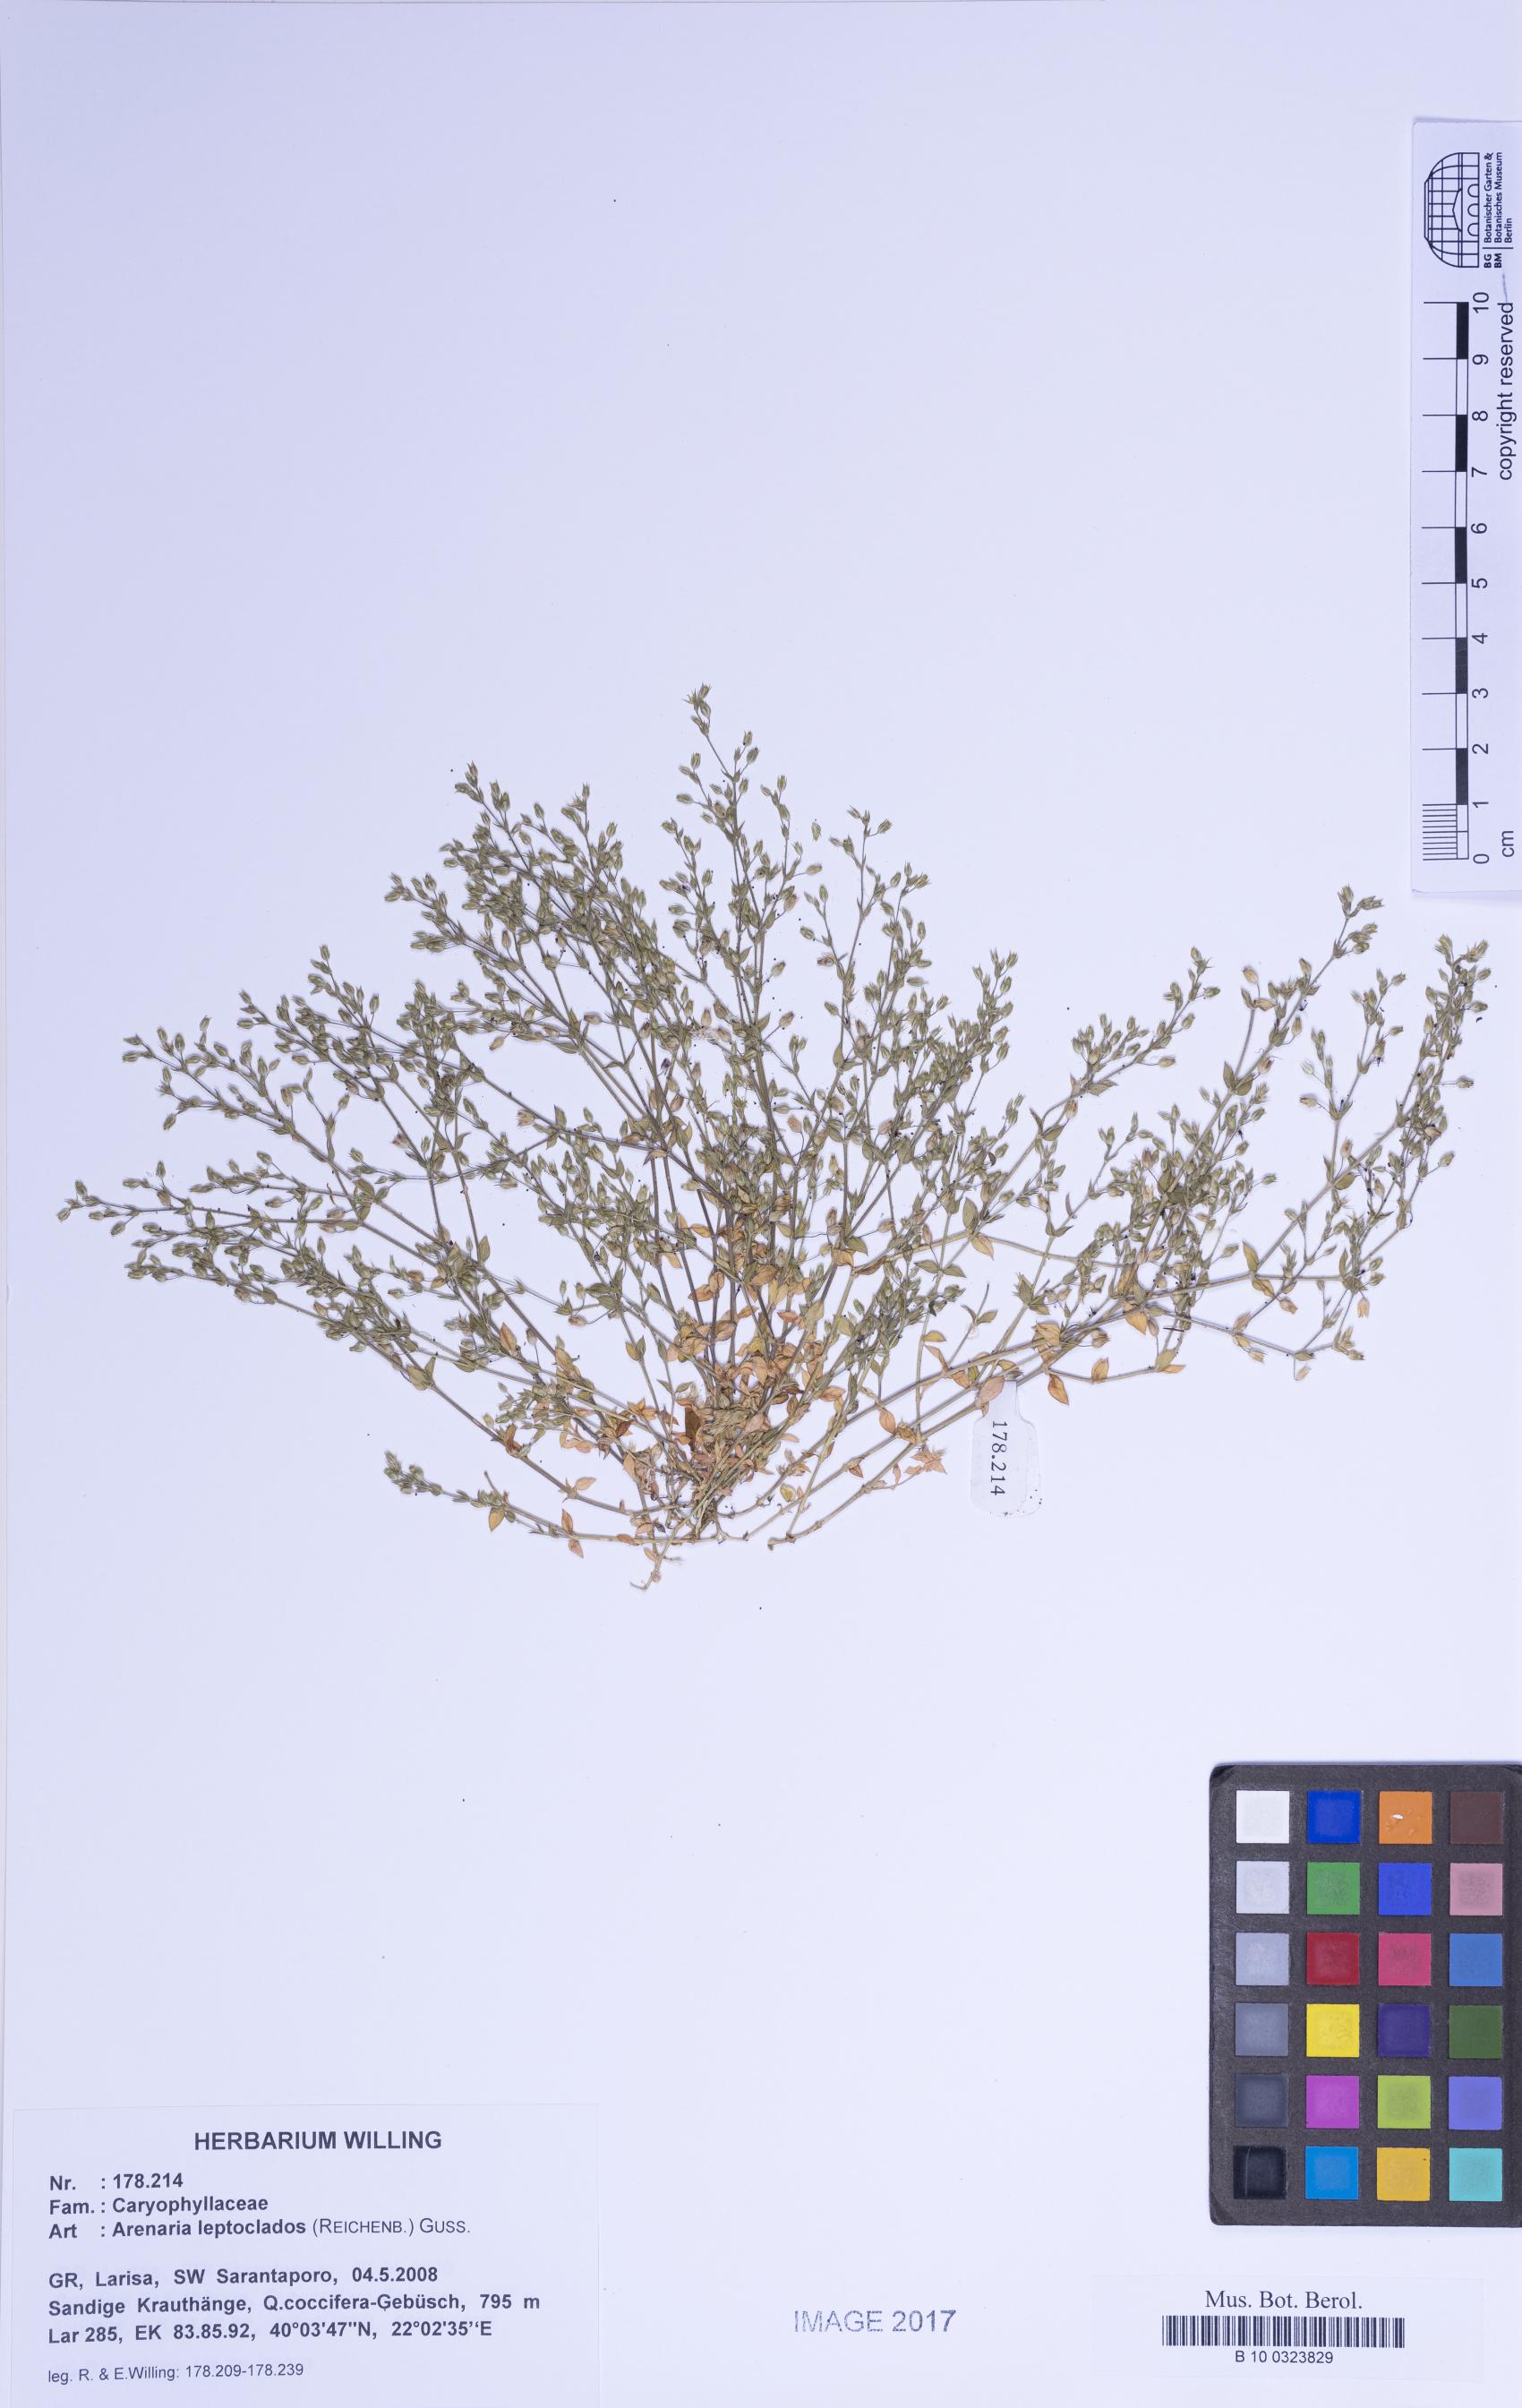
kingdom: Plantae
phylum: Tracheophyta
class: Magnoliopsida
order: Caryophyllales
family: Caryophyllaceae
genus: Arenaria
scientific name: Arenaria leptoclados
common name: Thyme-leaved sandwort
